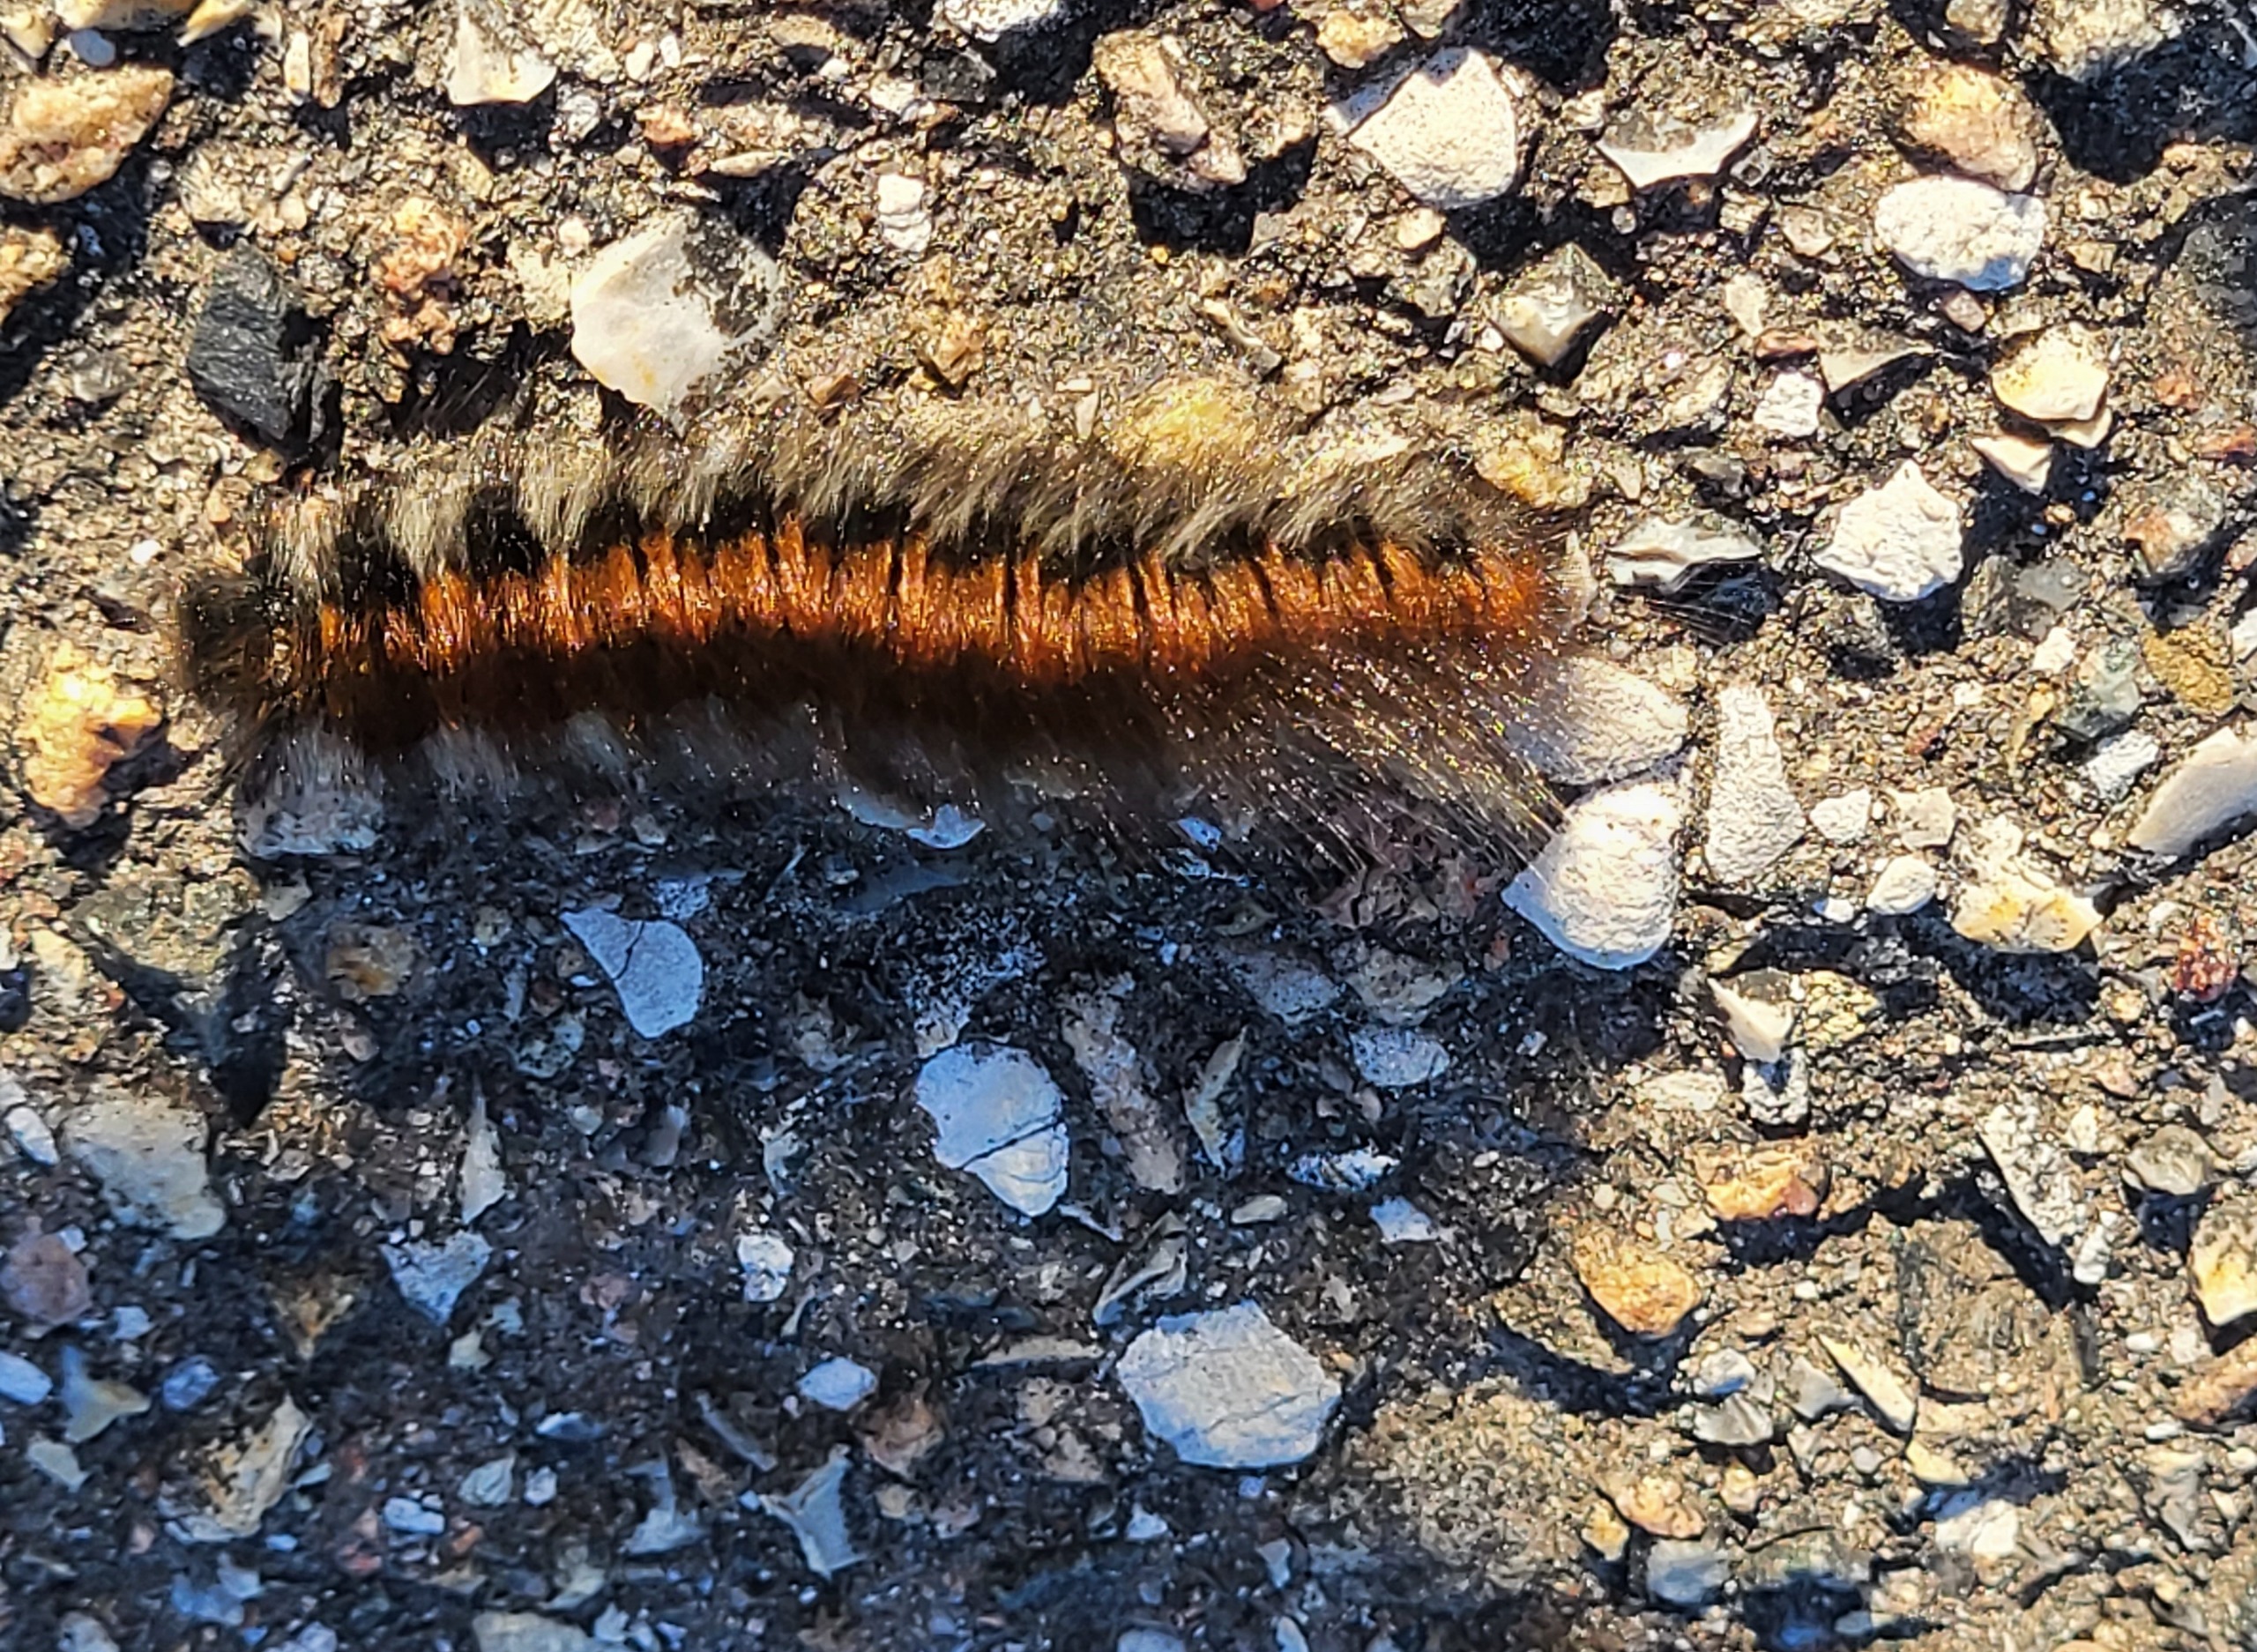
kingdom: Animalia
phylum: Arthropoda
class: Insecta
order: Lepidoptera
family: Lasiocampidae
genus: Macrothylacia
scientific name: Macrothylacia rubi
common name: Brombærspinder
